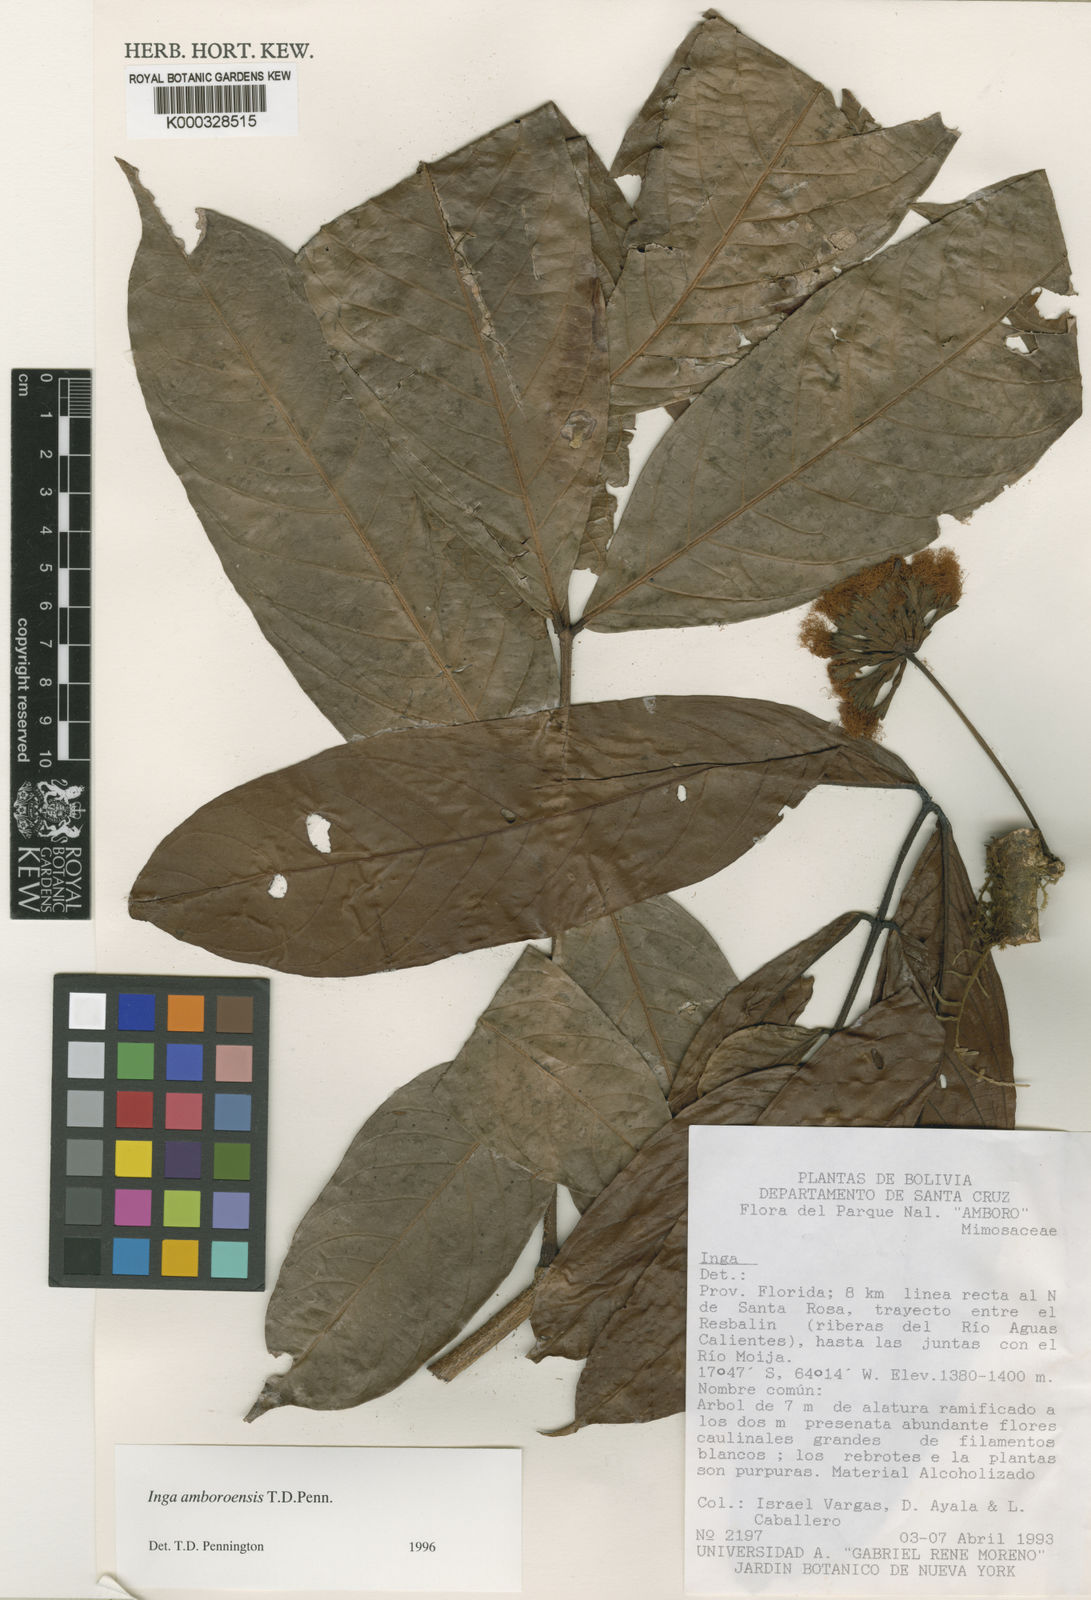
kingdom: Plantae
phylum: Tracheophyta
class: Magnoliopsida
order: Fabales
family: Fabaceae
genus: Inga
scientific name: Inga amboroensis
